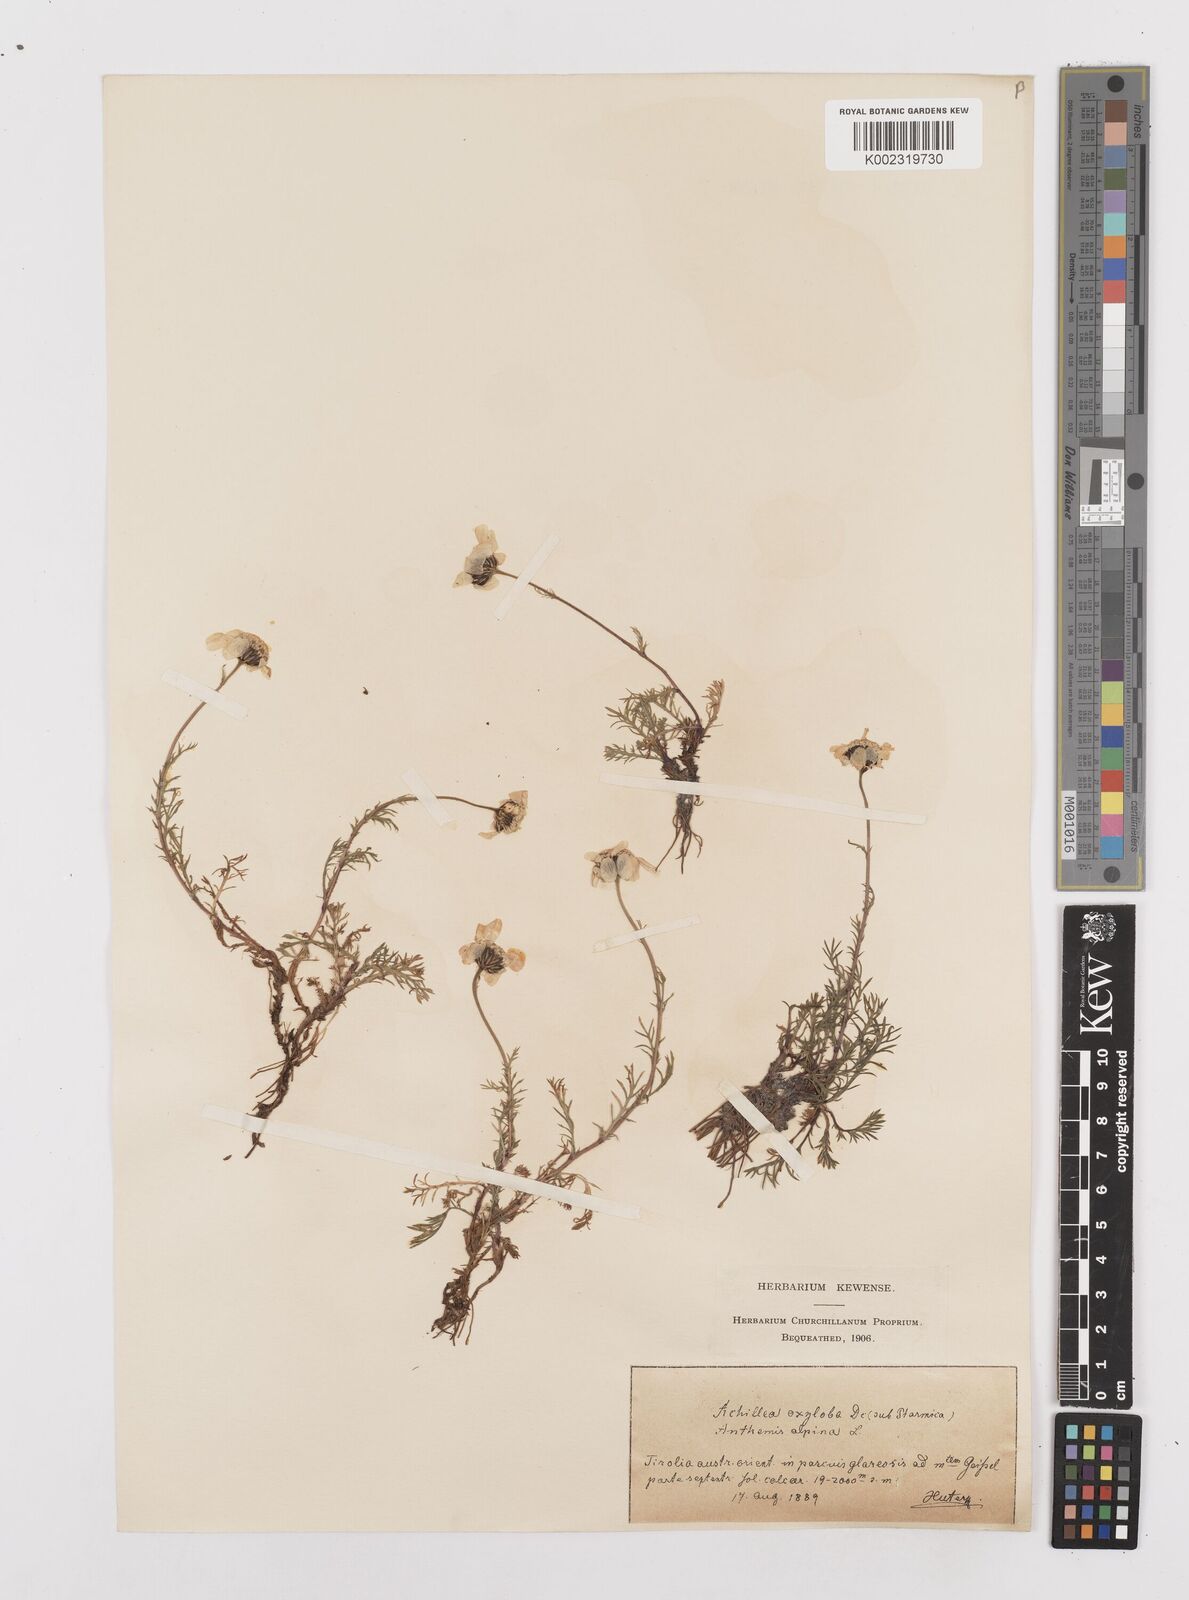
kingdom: Plantae
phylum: Tracheophyta
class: Magnoliopsida
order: Asterales
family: Asteraceae
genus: Achillea
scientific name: Achillea oxyloba
